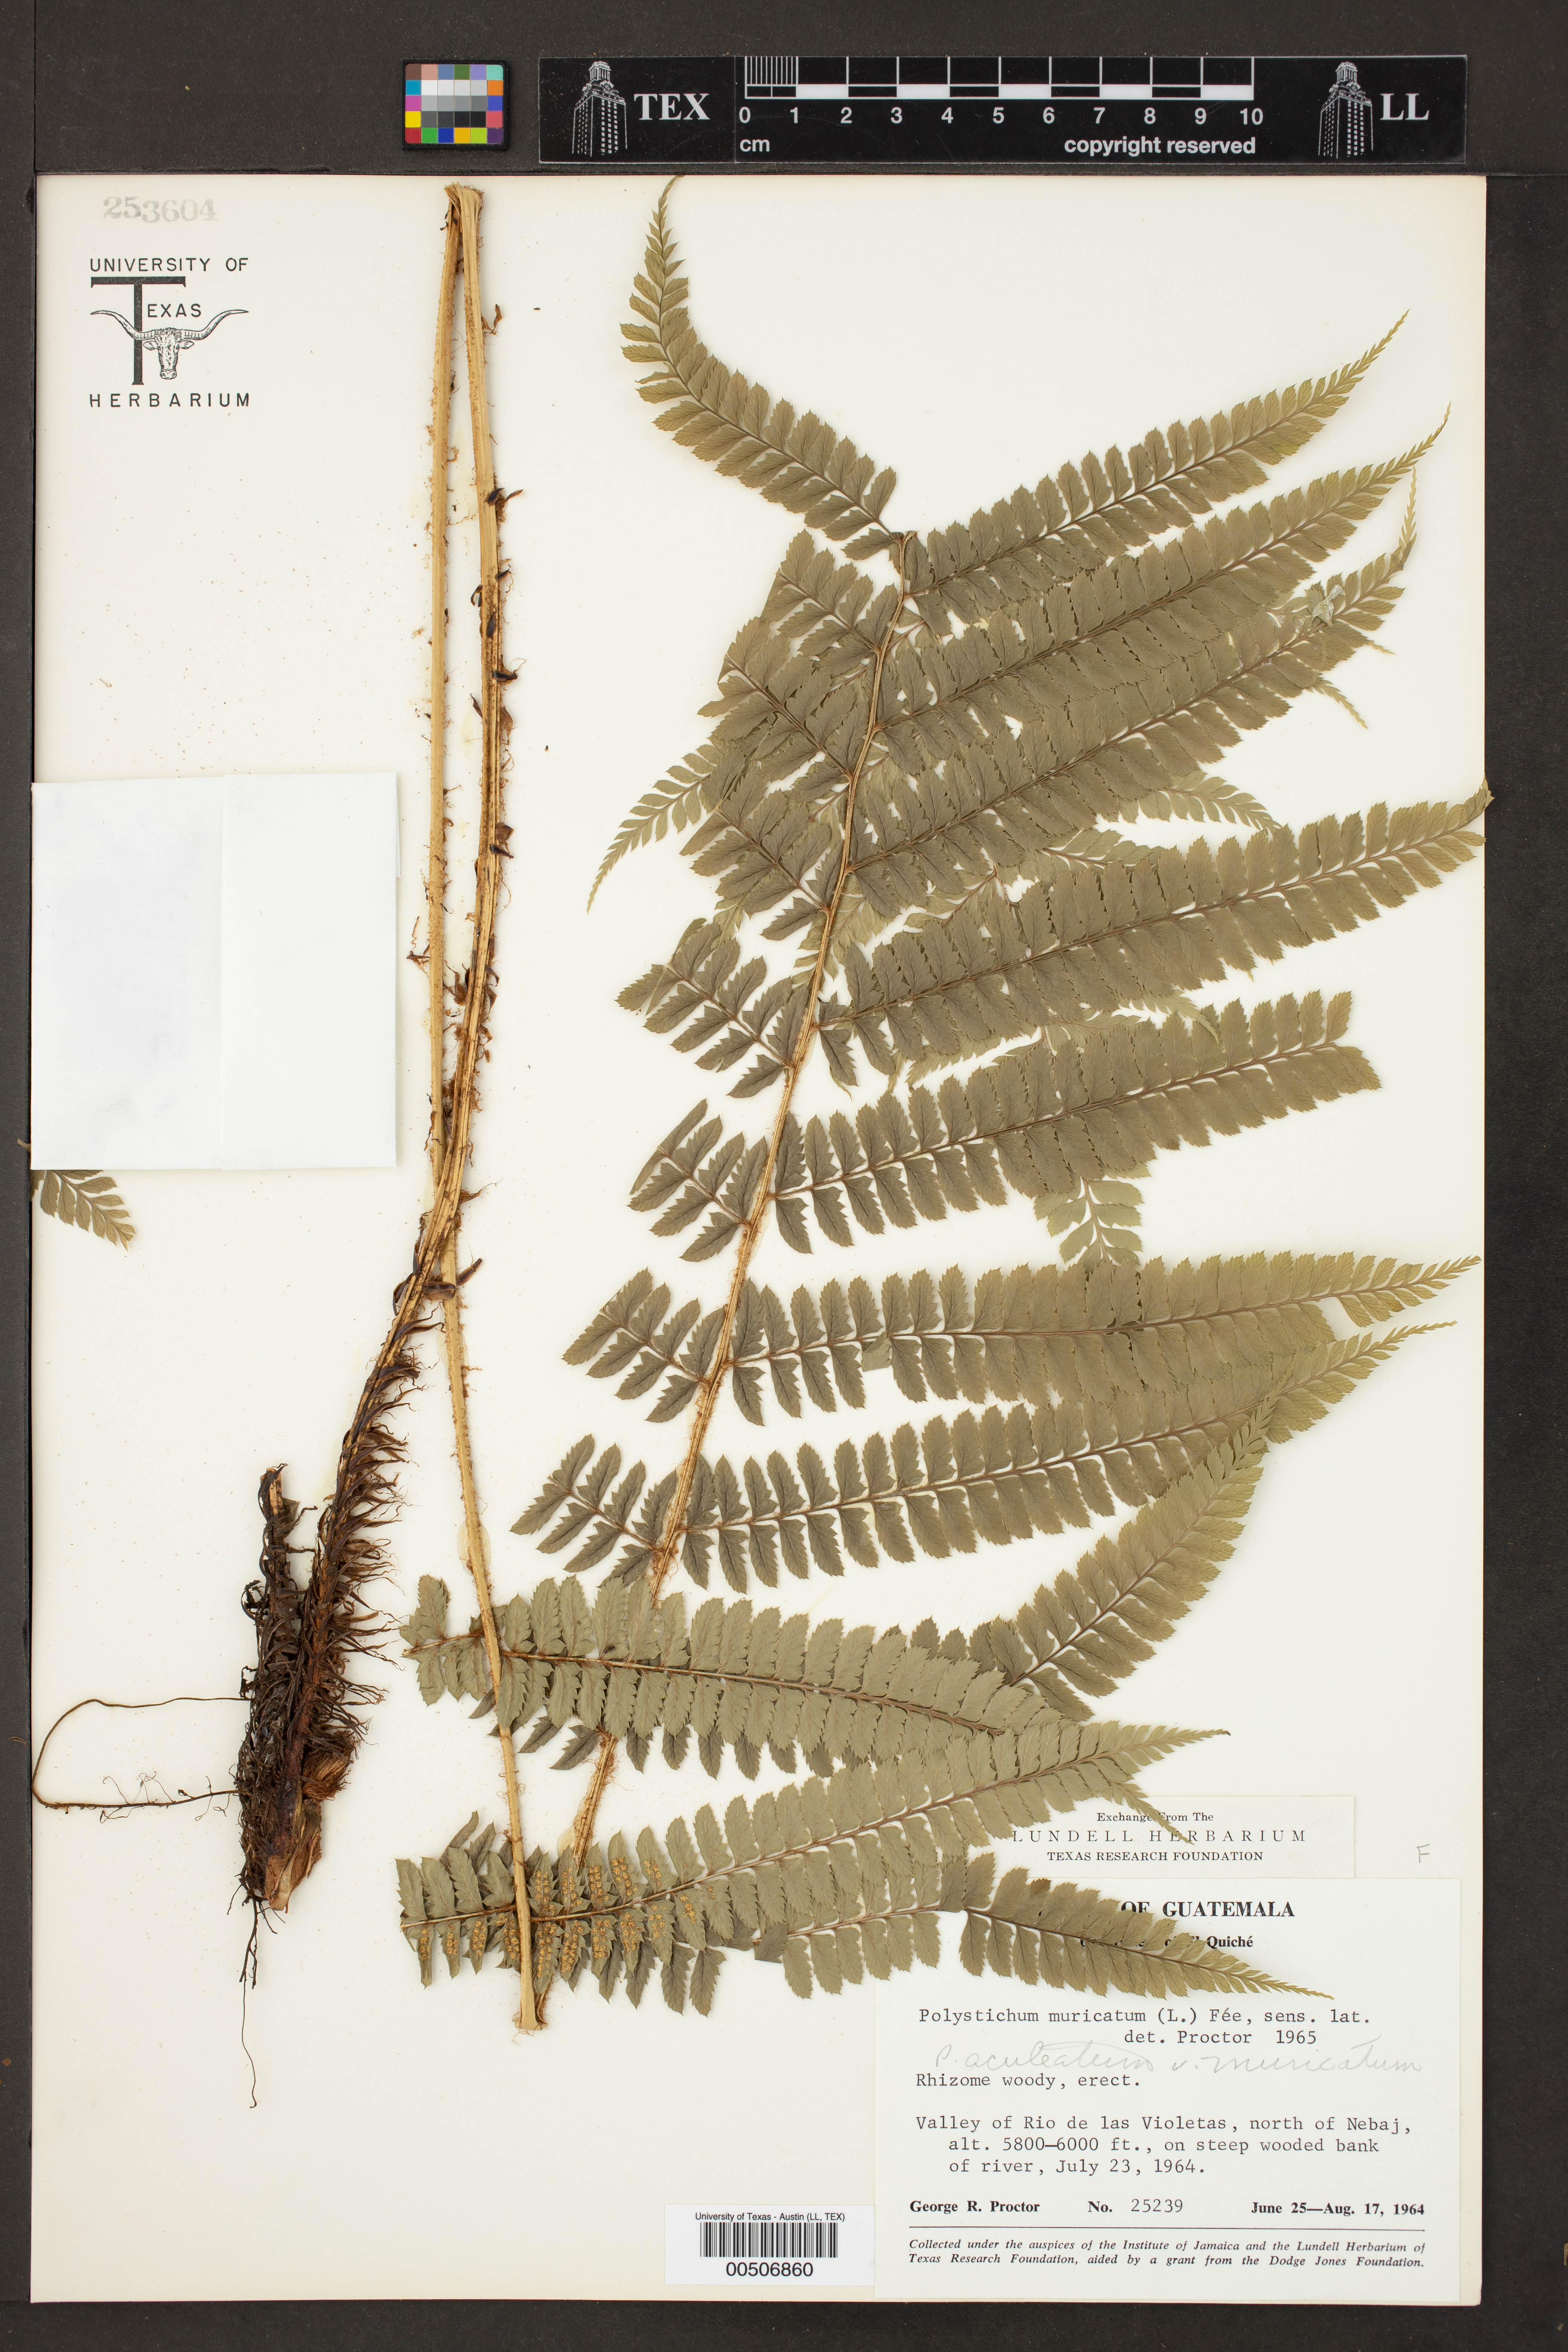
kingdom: Plantae
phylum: Tracheophyta
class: Polypodiopsida
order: Polypodiales
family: Dryopteridaceae
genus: Polystichum
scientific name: Polystichum muricatum
